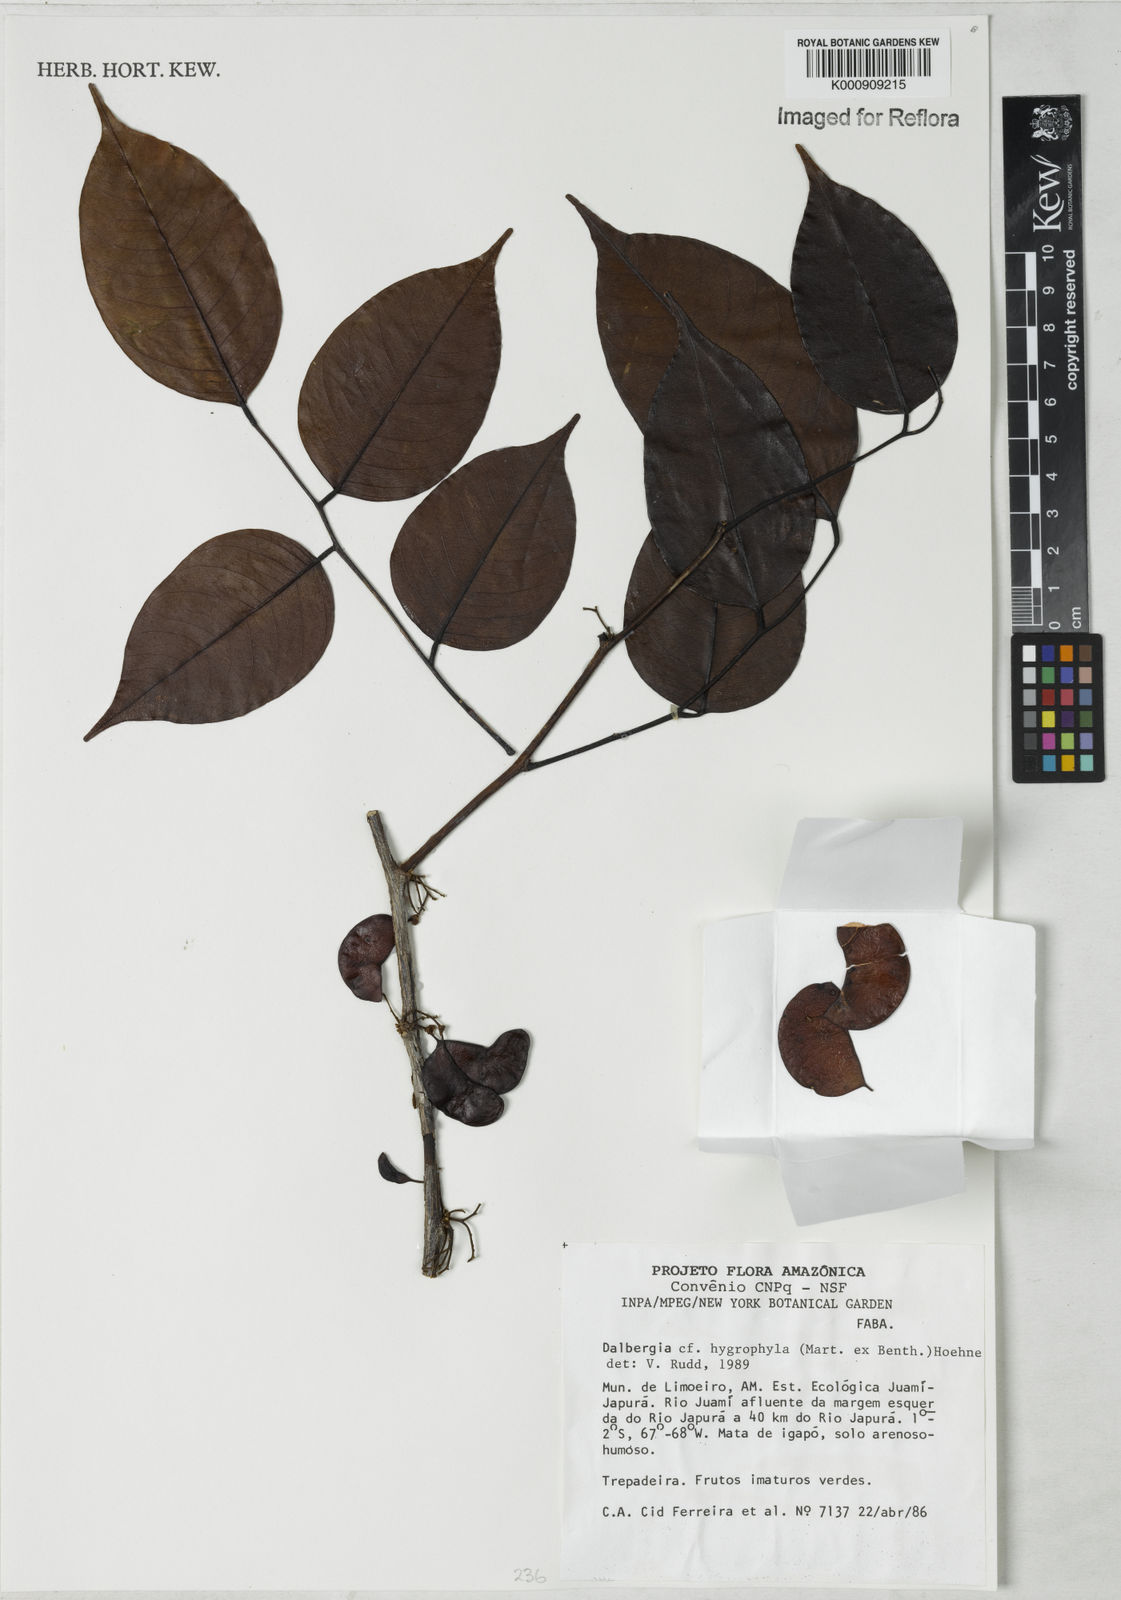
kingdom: Plantae
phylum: Tracheophyta
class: Magnoliopsida
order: Fabales
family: Fabaceae
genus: Dalbergia
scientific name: Dalbergia hygrophila
